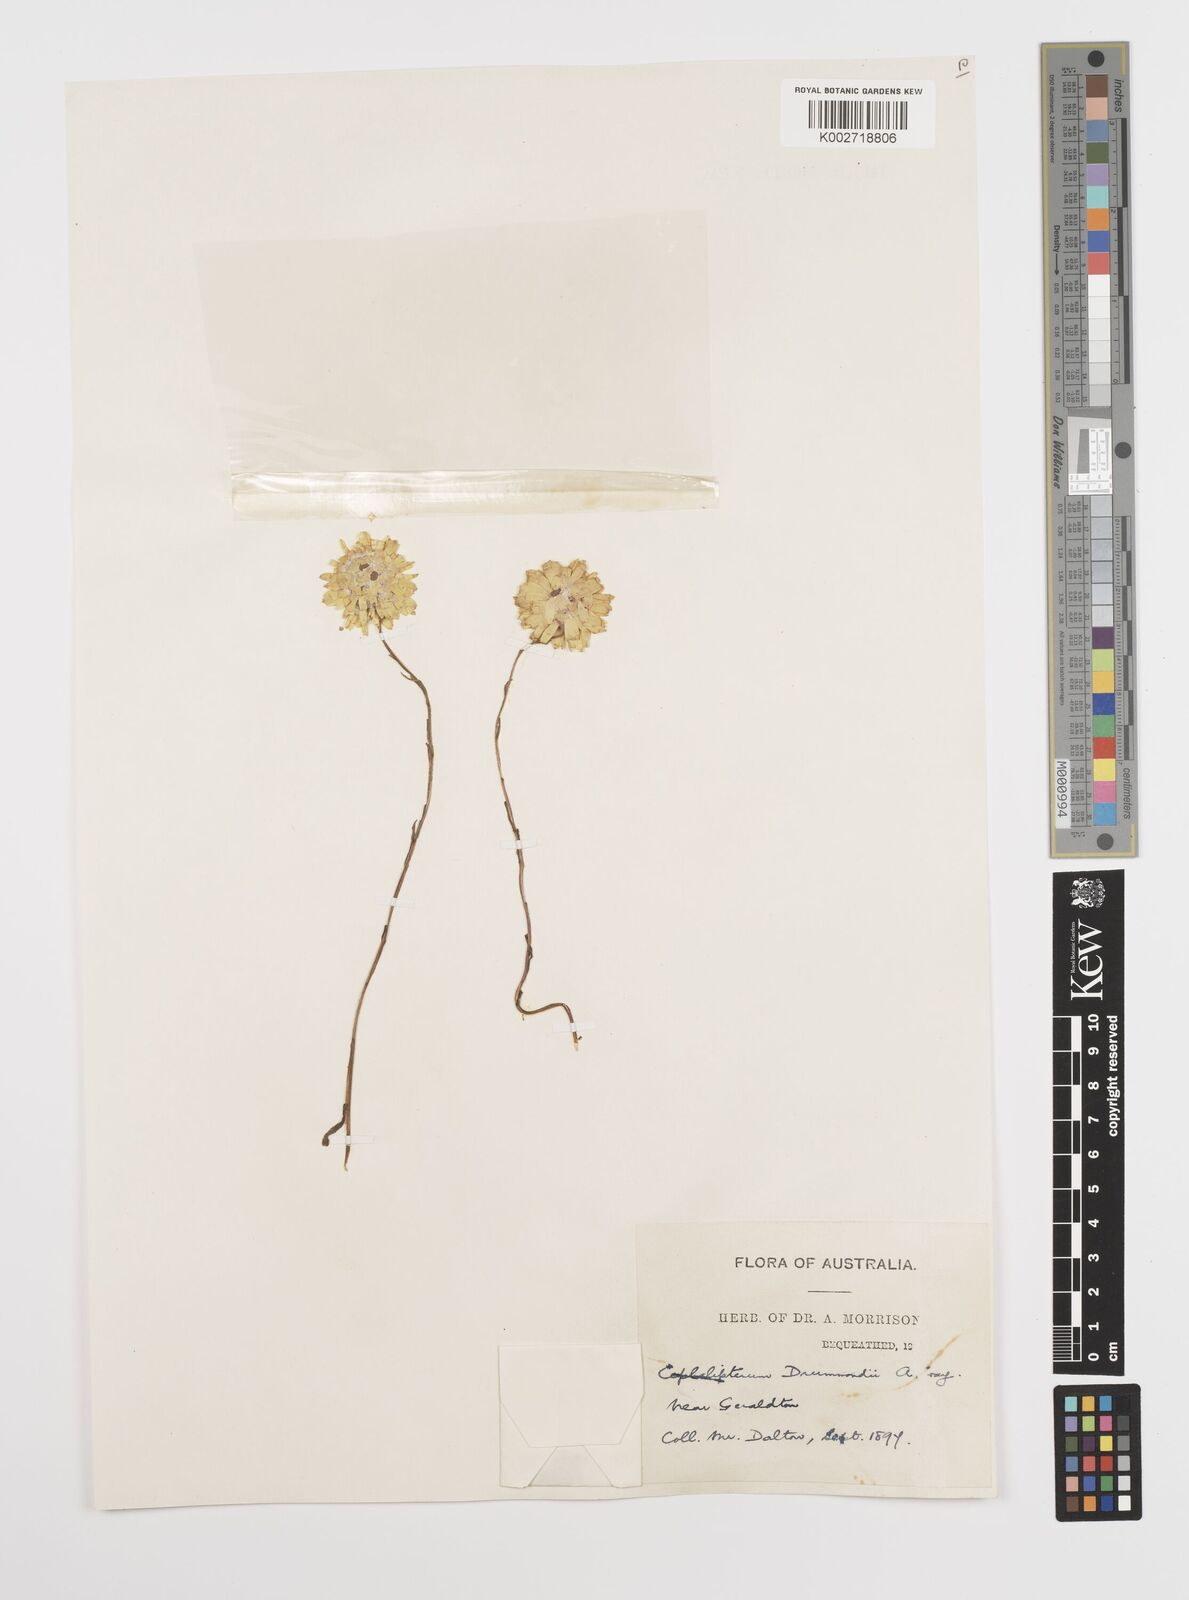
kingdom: Plantae
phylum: Tracheophyta
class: Magnoliopsida
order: Asterales
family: Asteraceae
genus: Cephalipterum
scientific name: Cephalipterum drummondii
